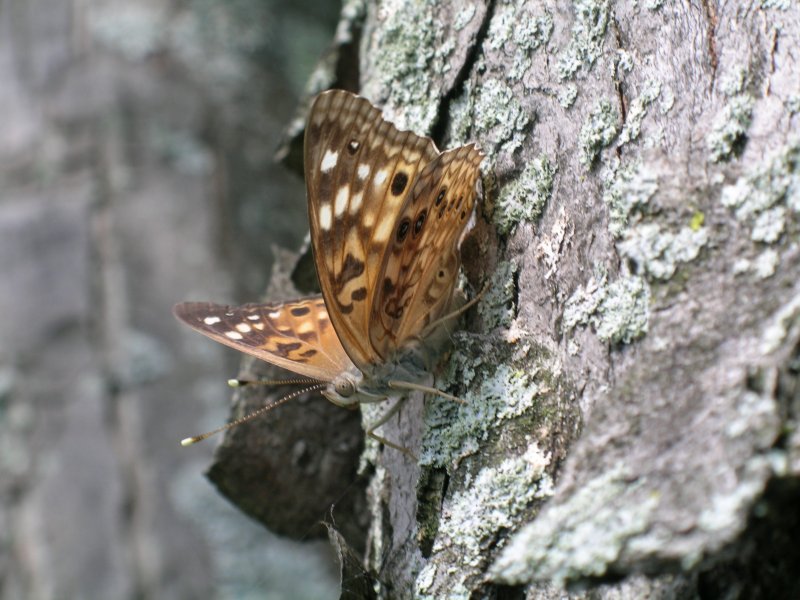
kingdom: Animalia
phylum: Arthropoda
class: Insecta
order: Lepidoptera
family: Nymphalidae
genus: Asterocampa
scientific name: Asterocampa celtis
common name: Hackberry Emperor
